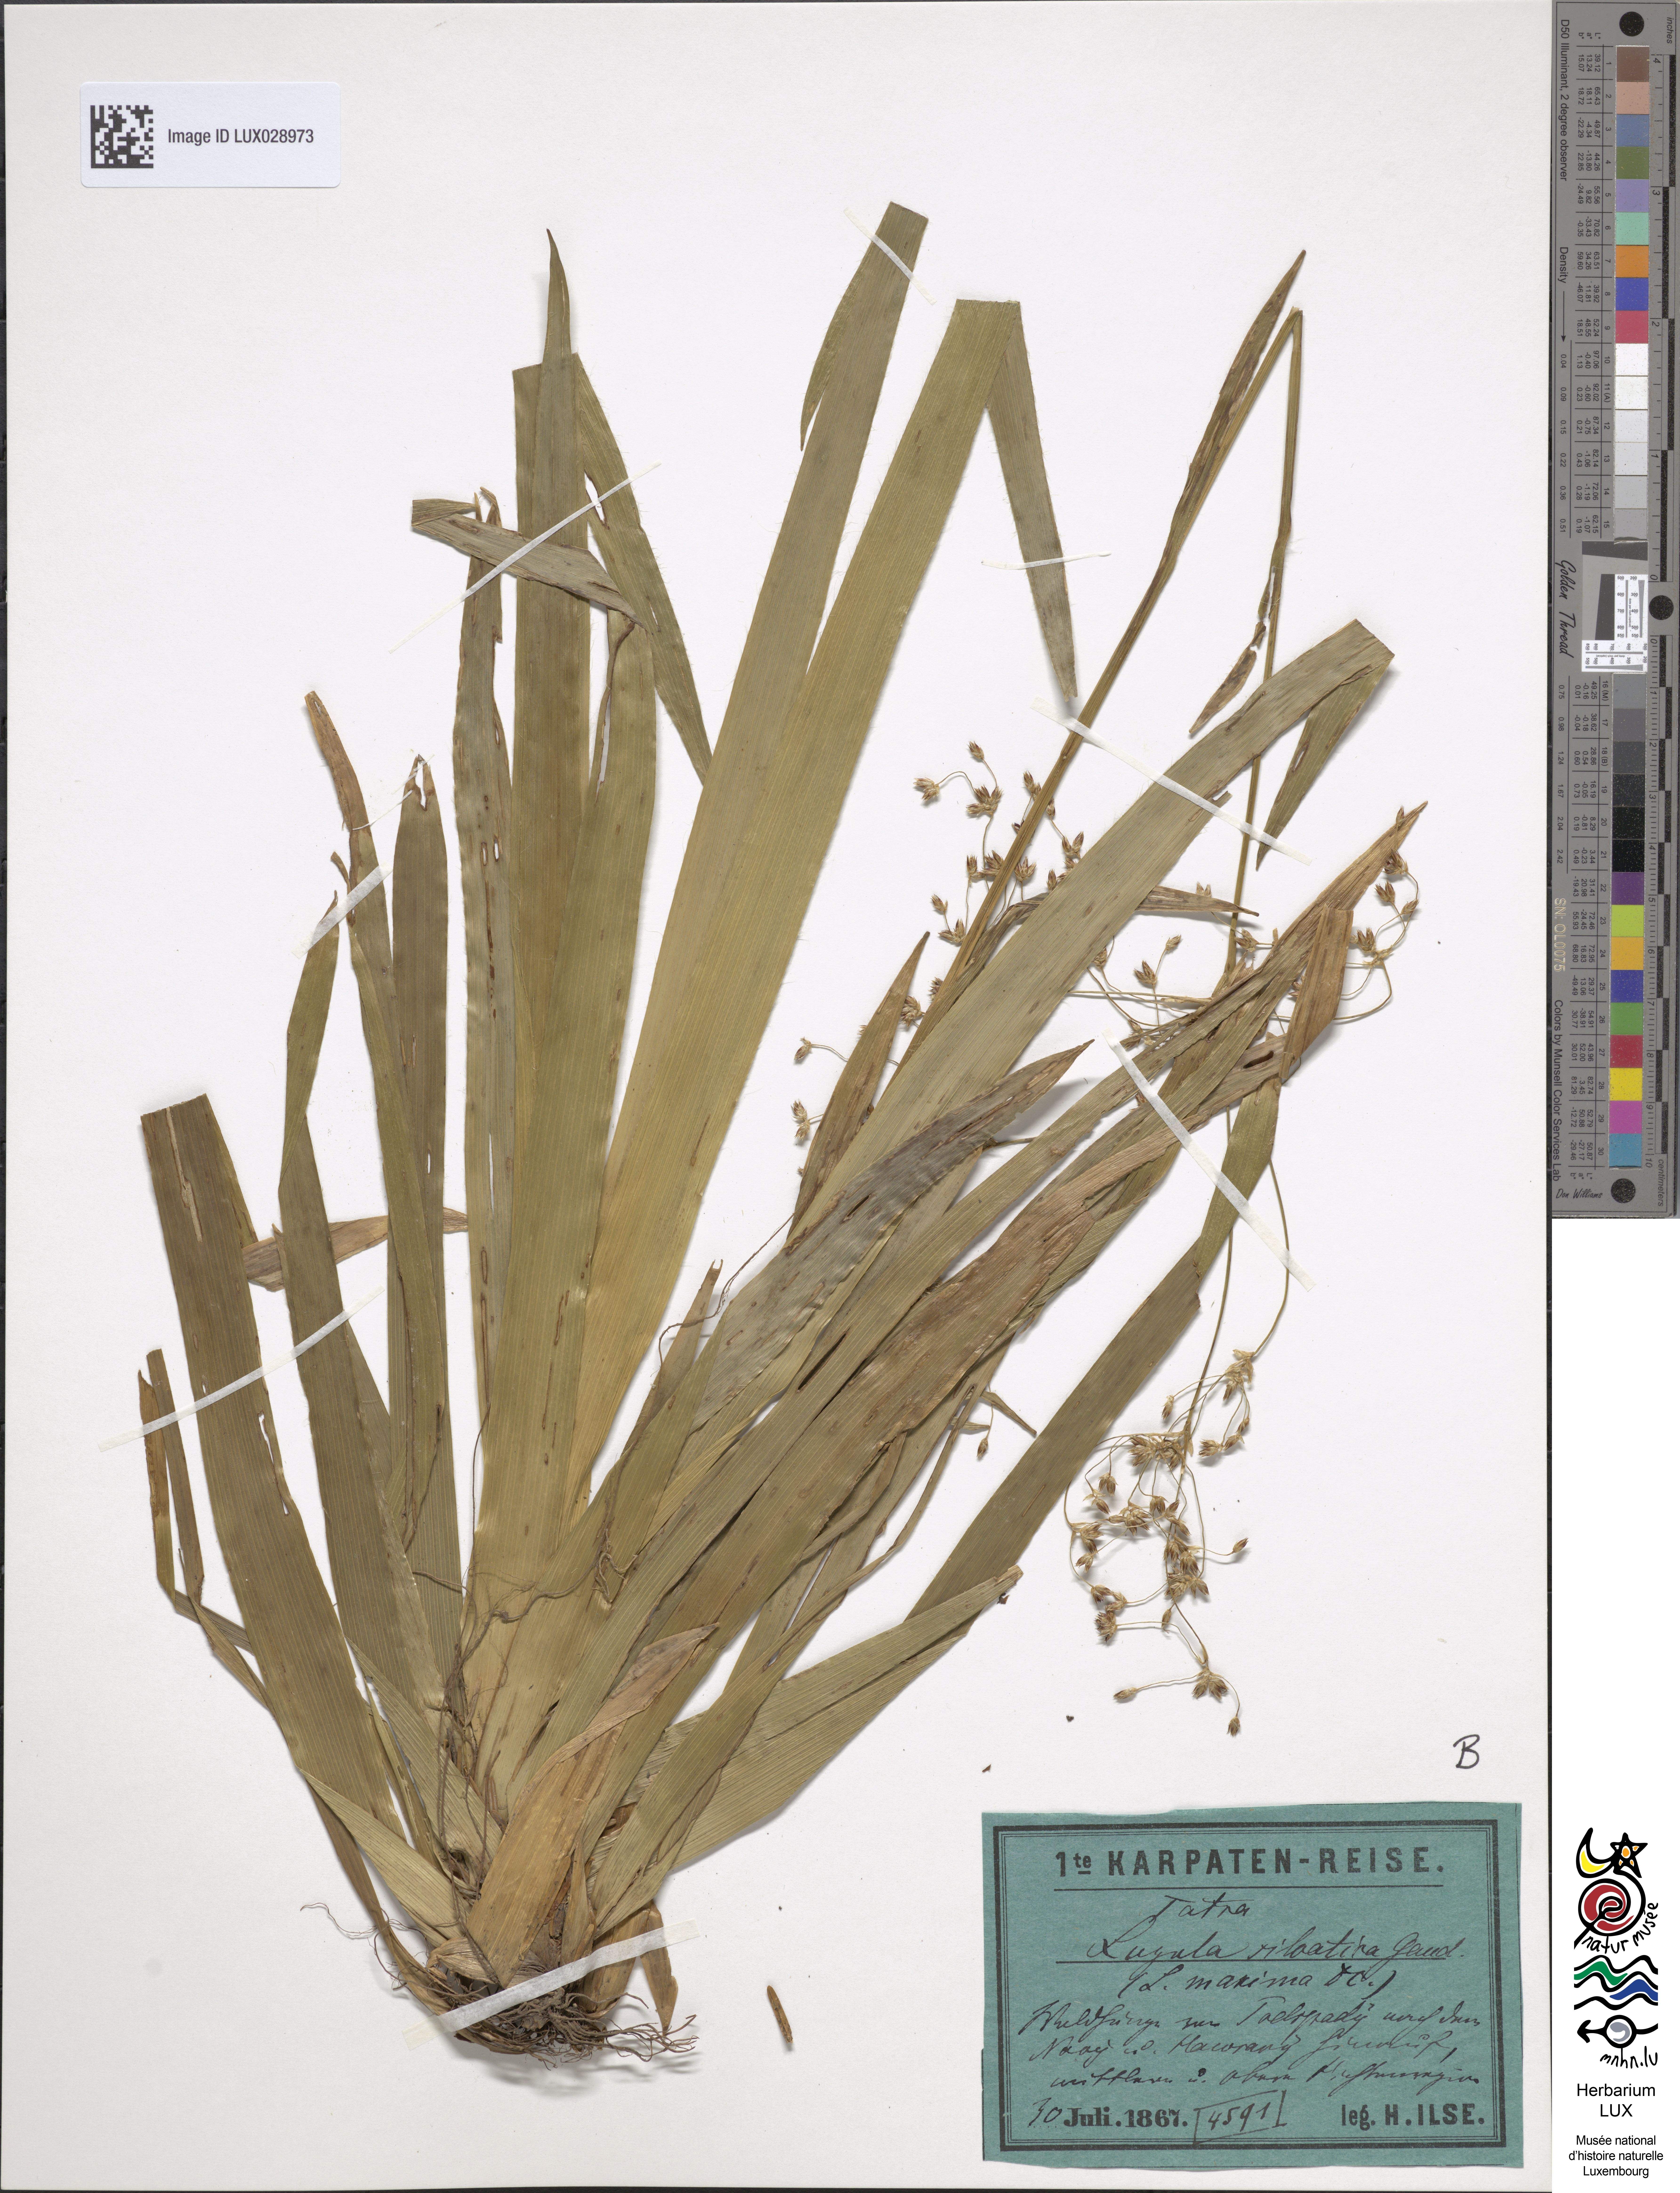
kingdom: Plantae
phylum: Tracheophyta
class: Liliopsida
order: Poales
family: Juncaceae
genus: Luzula
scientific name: Luzula sylvatica
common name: Great wood-rush
